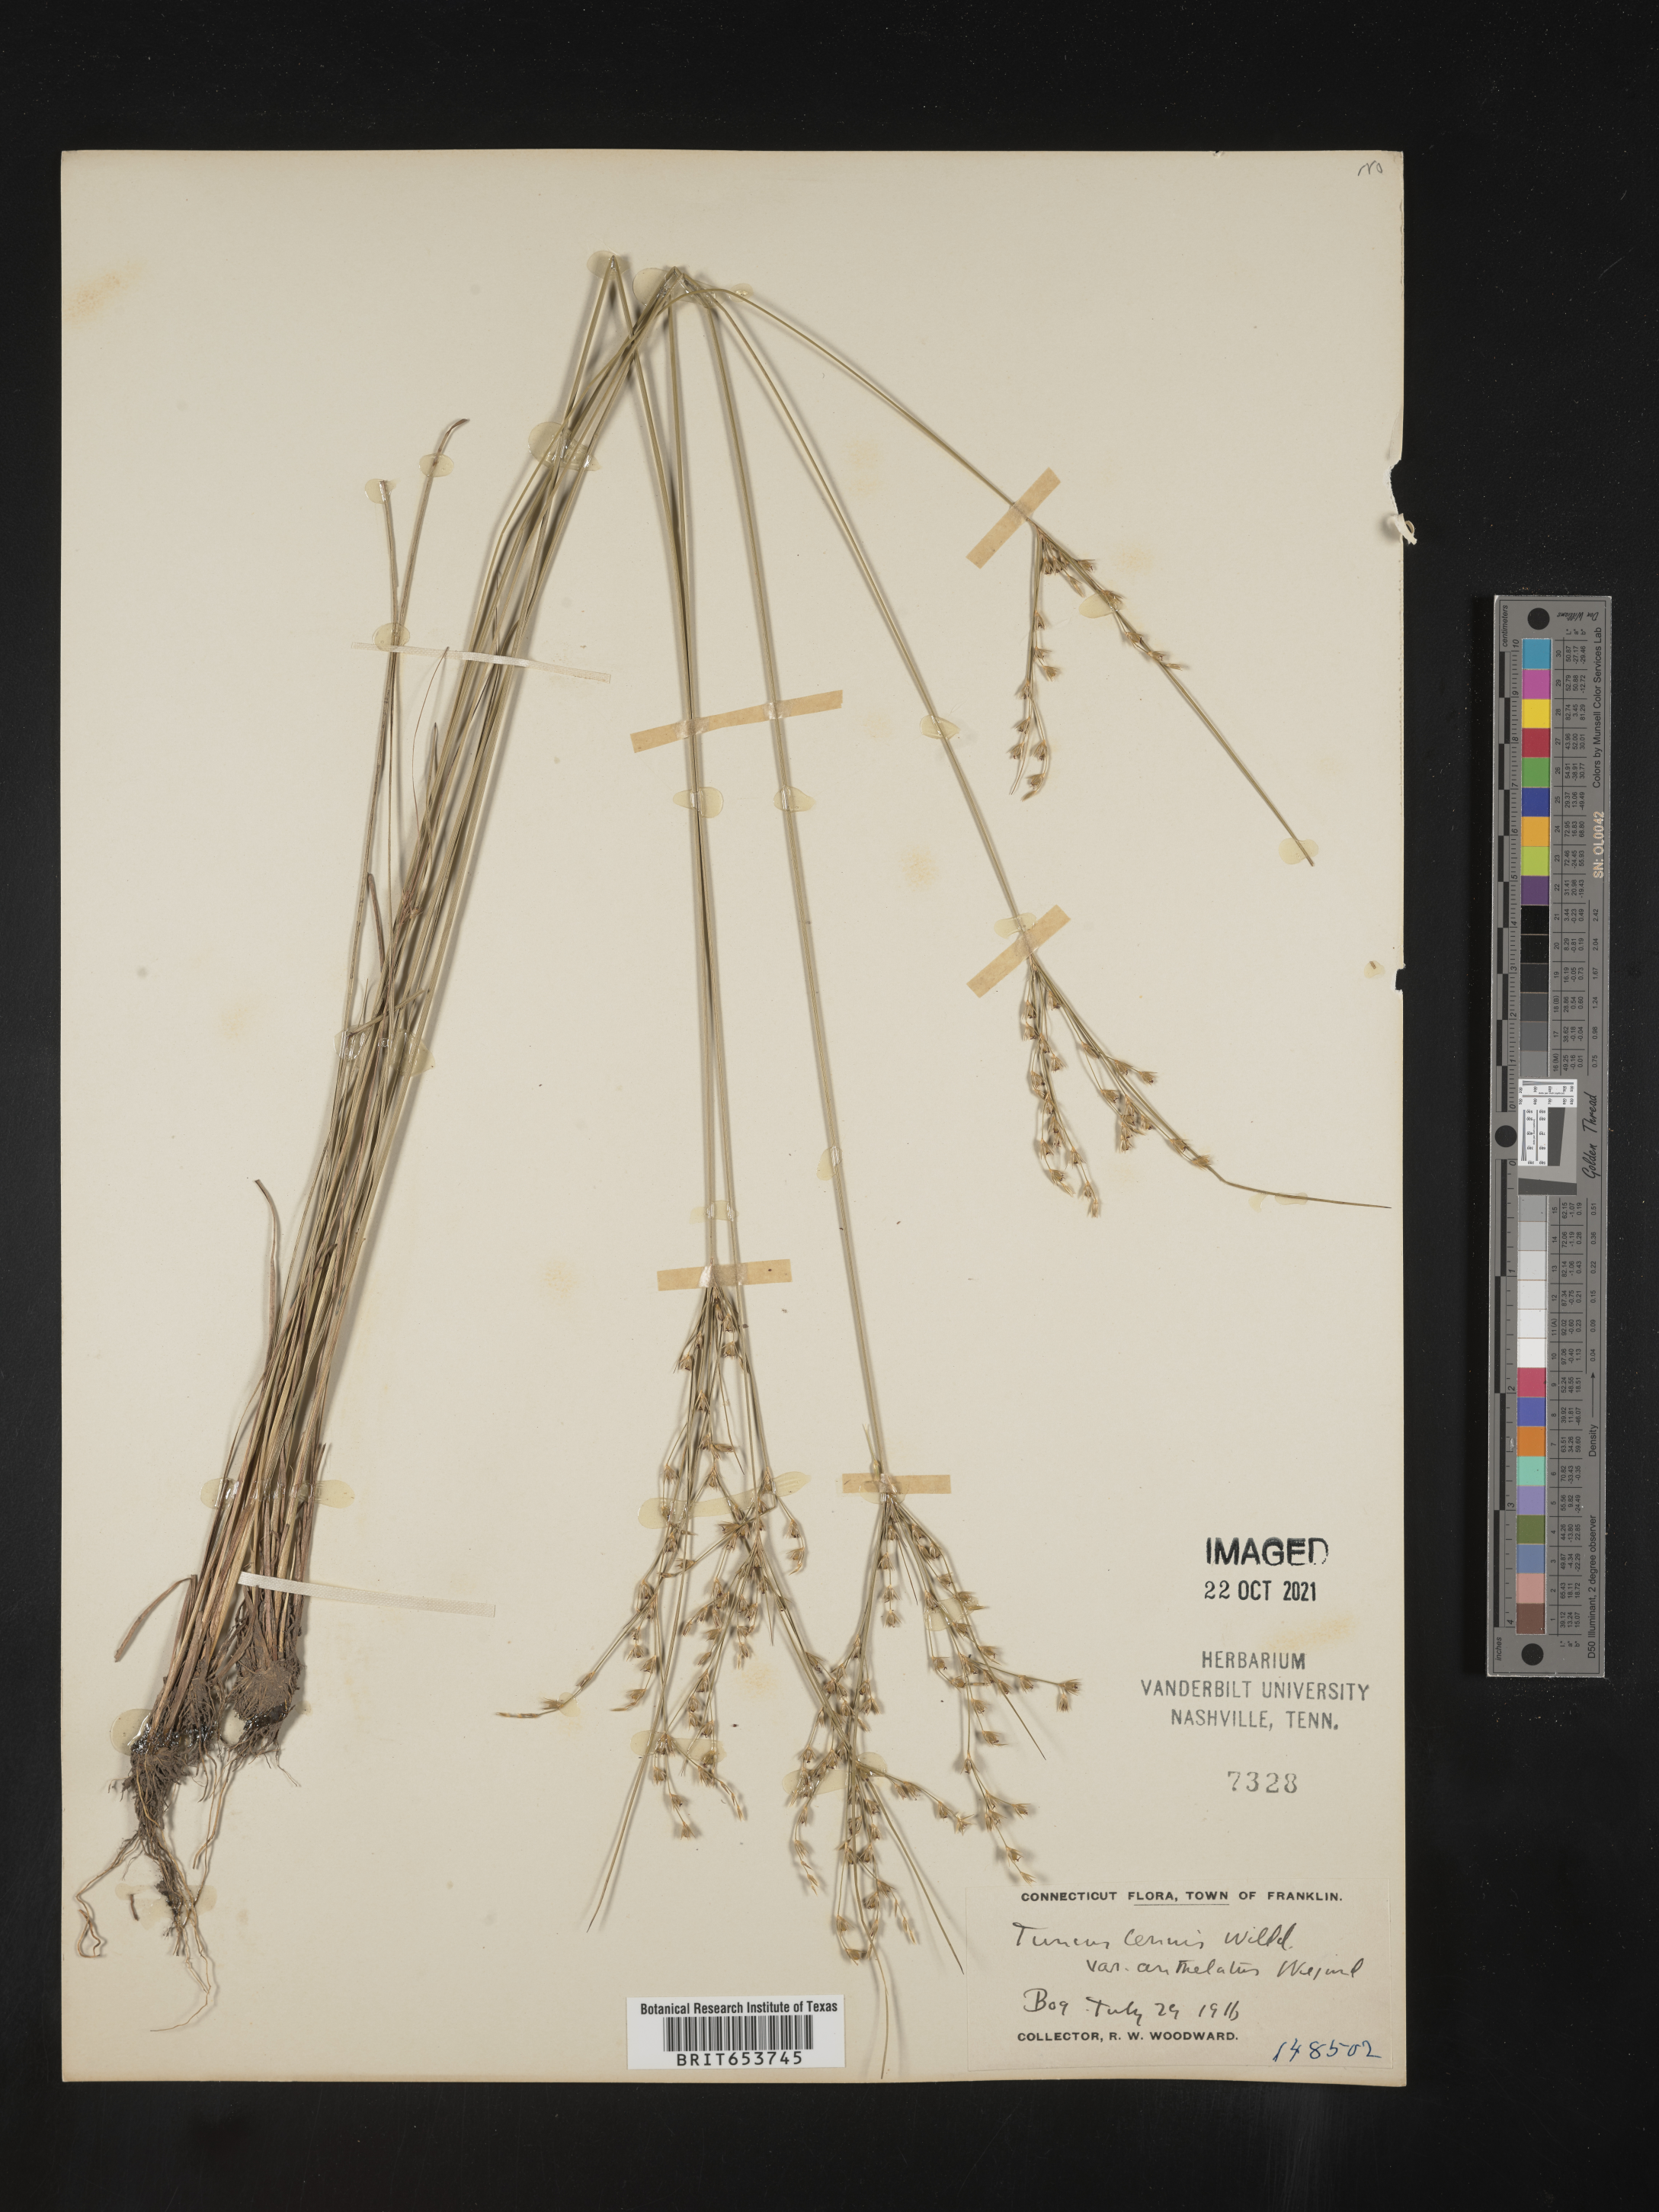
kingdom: Plantae
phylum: Tracheophyta
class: Liliopsida
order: Poales
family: Juncaceae
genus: Juncus
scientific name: Juncus tenuis
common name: Slender rush
